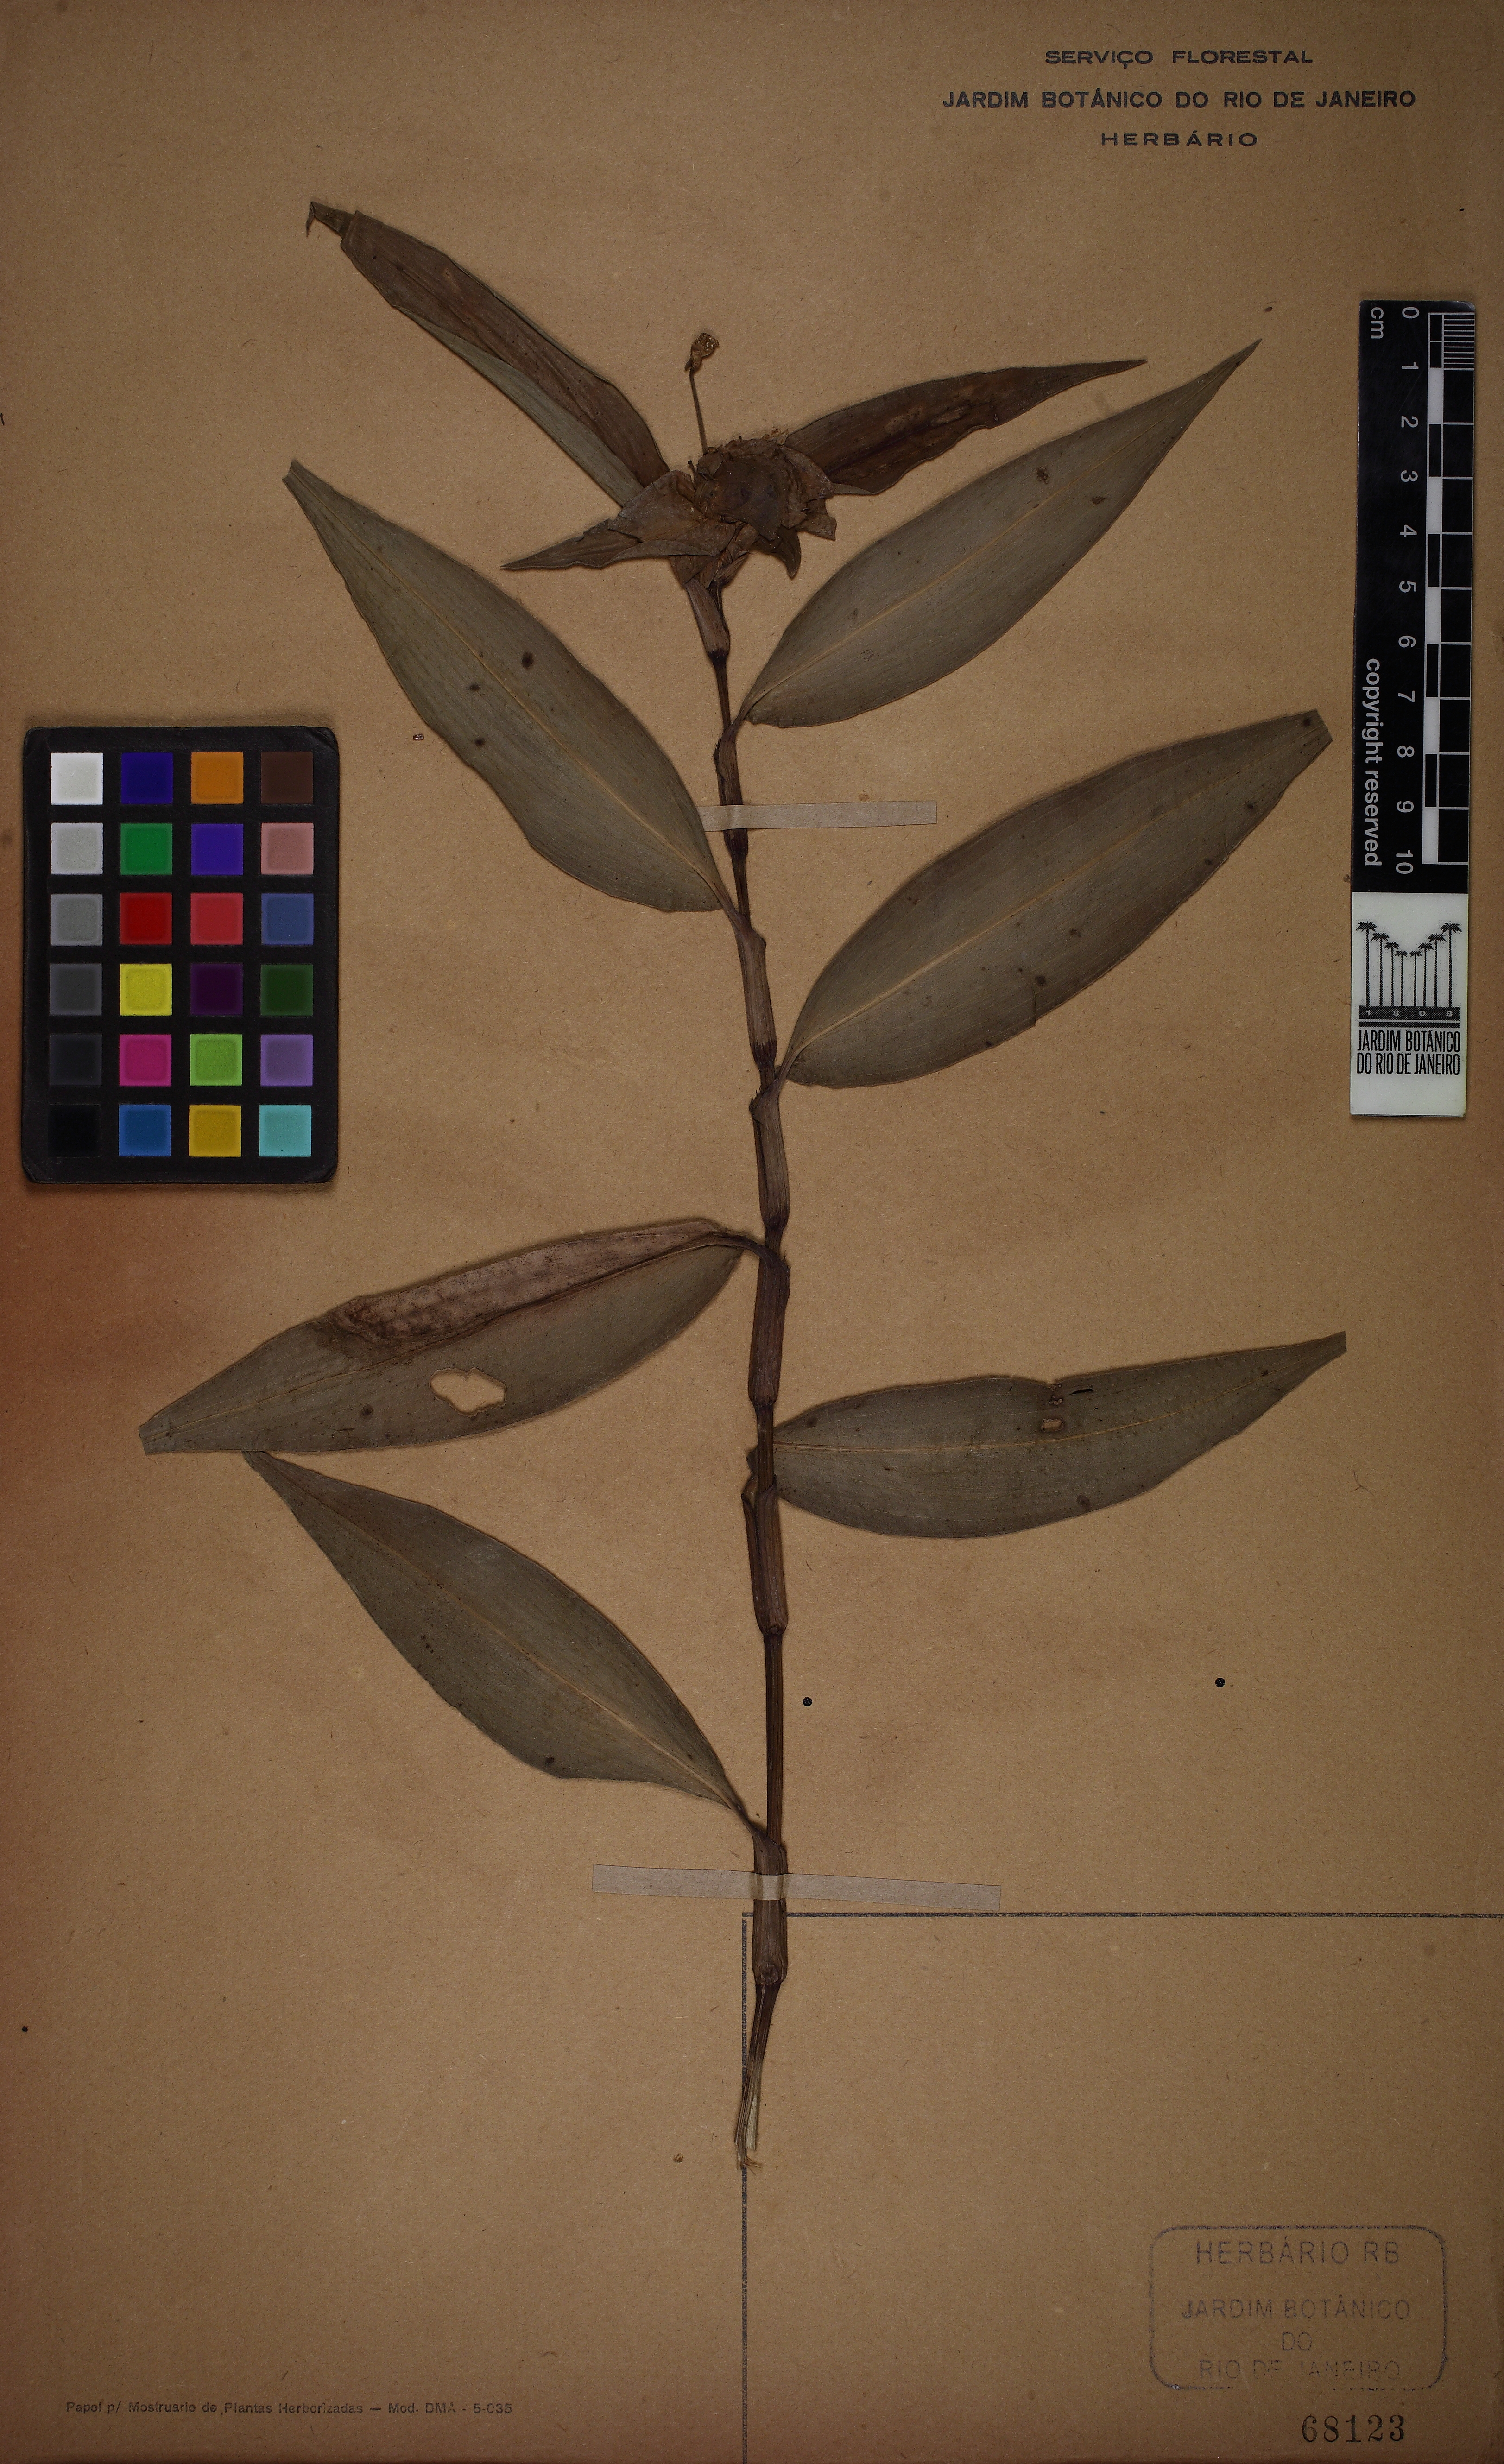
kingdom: Plantae
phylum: Tracheophyta
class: Liliopsida
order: Commelinales
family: Commelinaceae
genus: Commelina
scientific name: Commelina obliqua
